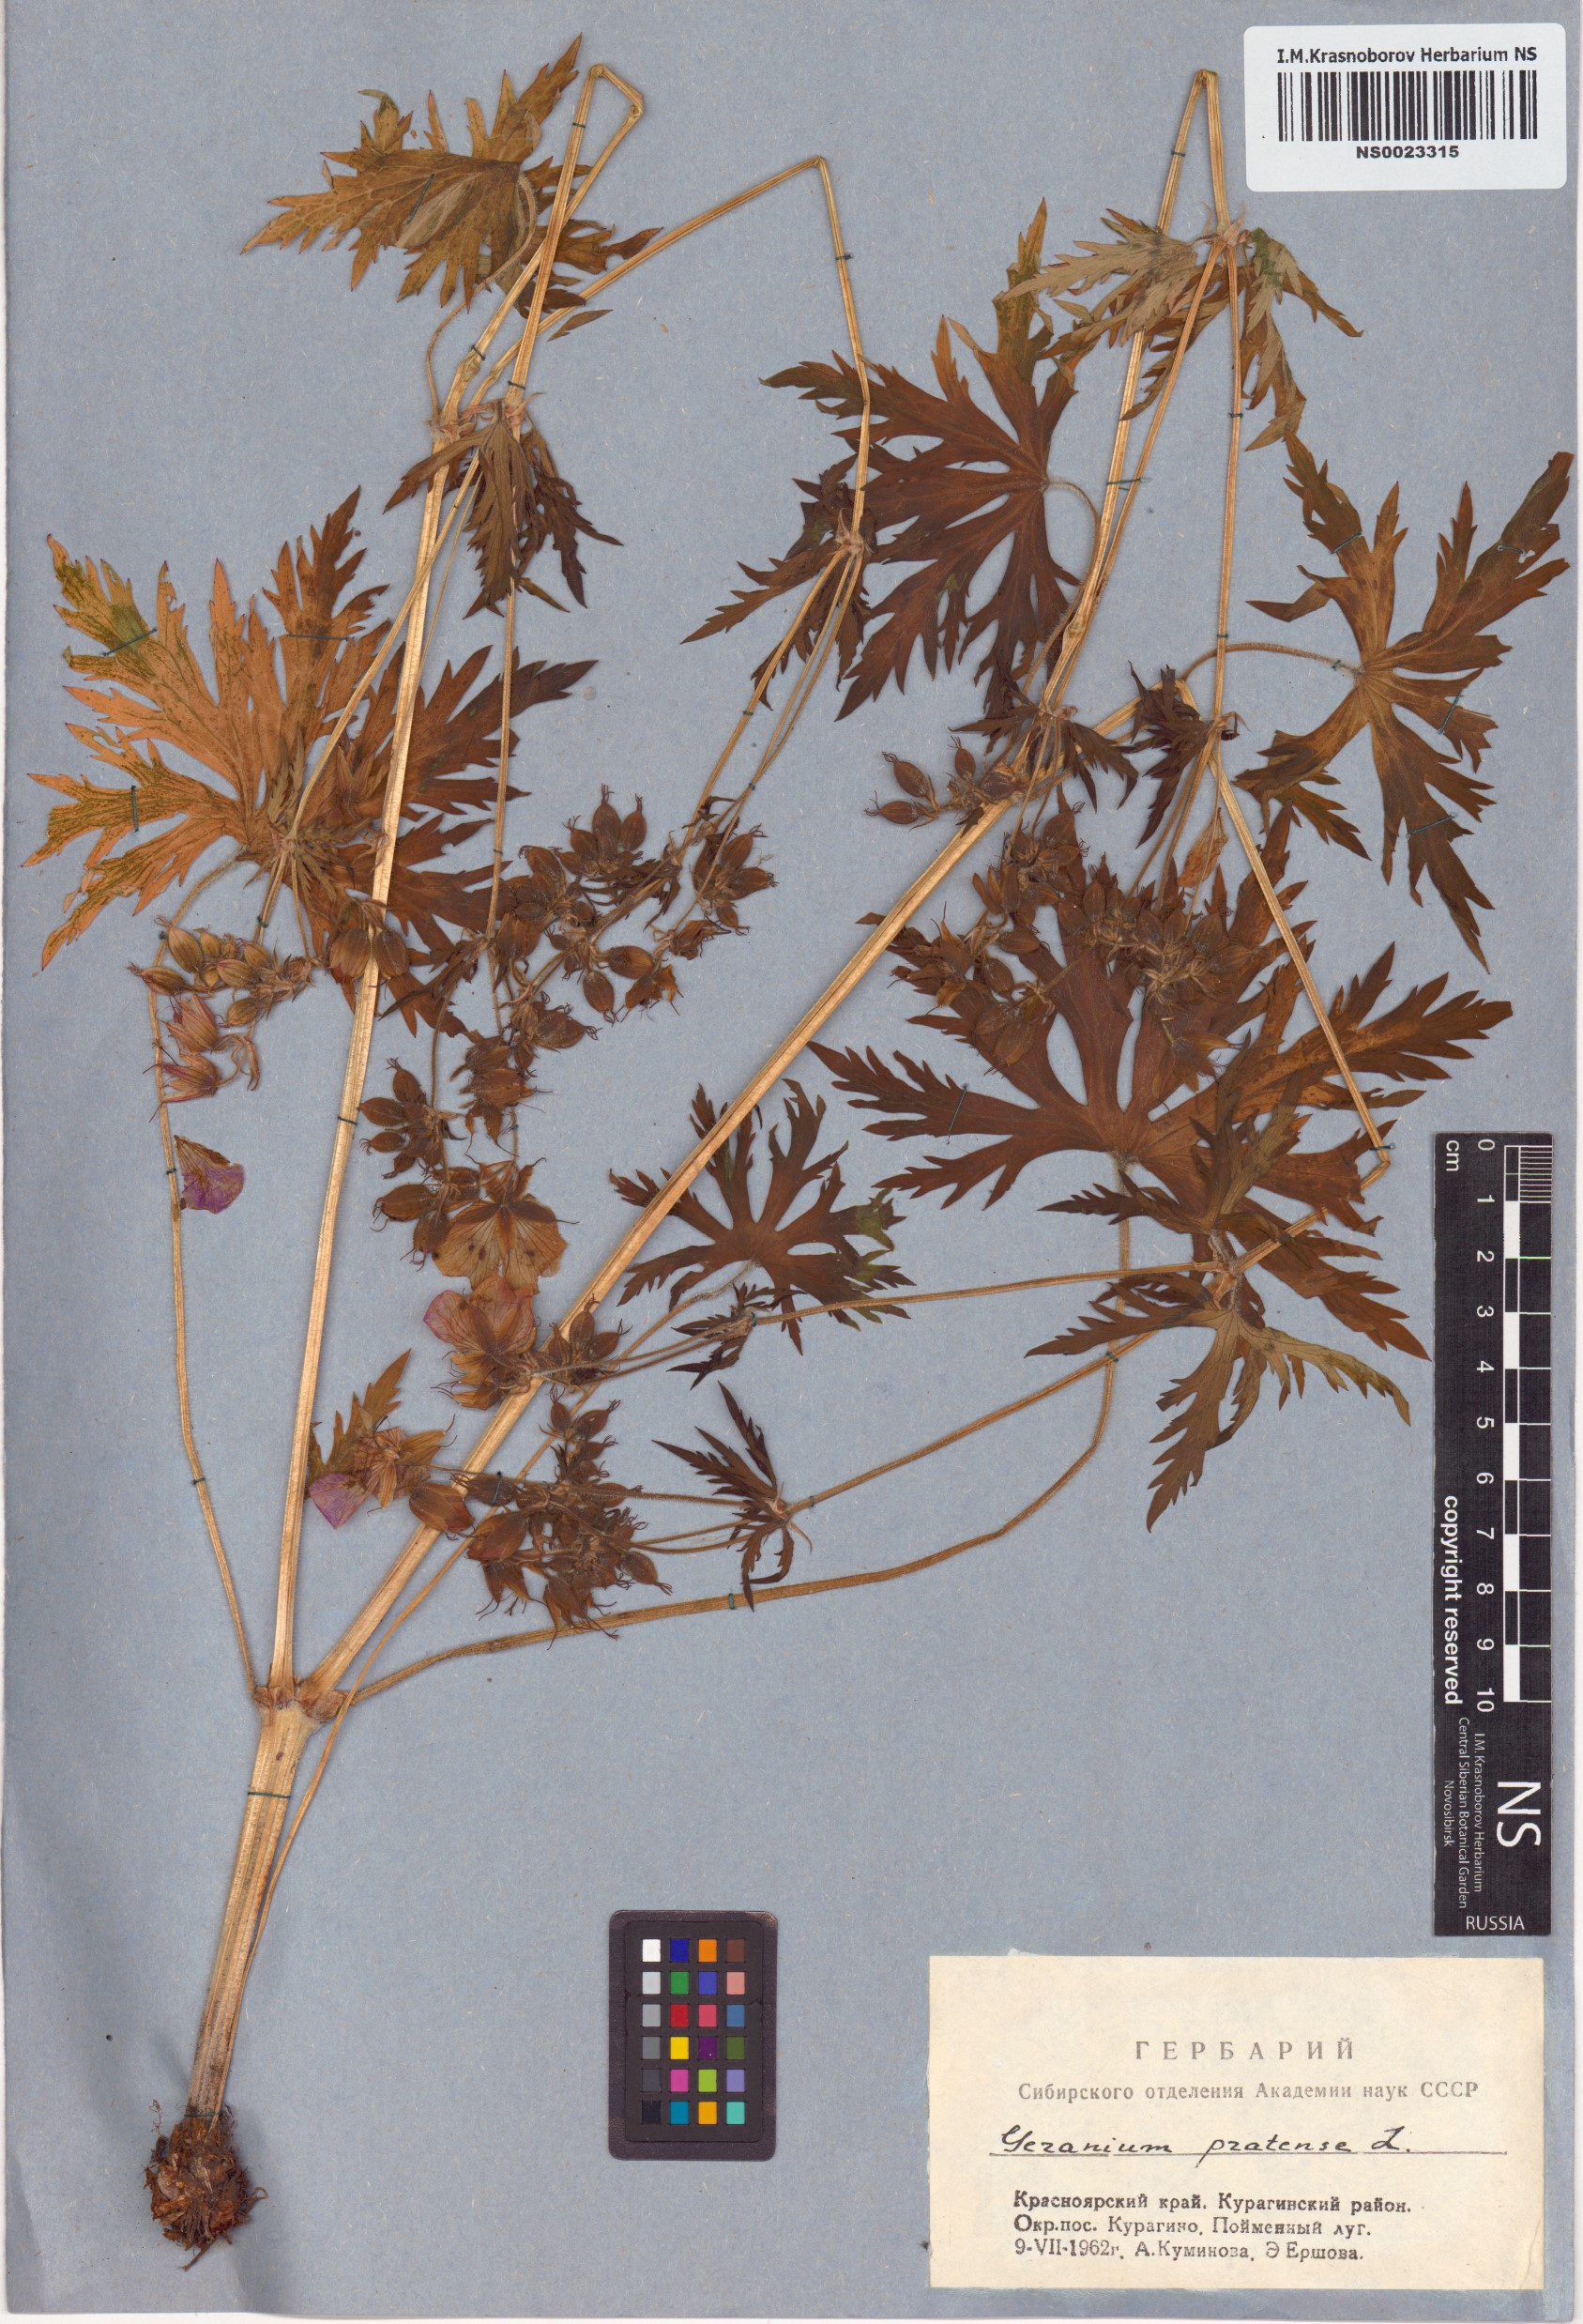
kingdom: Plantae
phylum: Tracheophyta
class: Magnoliopsida
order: Geraniales
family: Geraniaceae
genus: Geranium
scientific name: Geranium pratense
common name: Meadow crane's-bill
